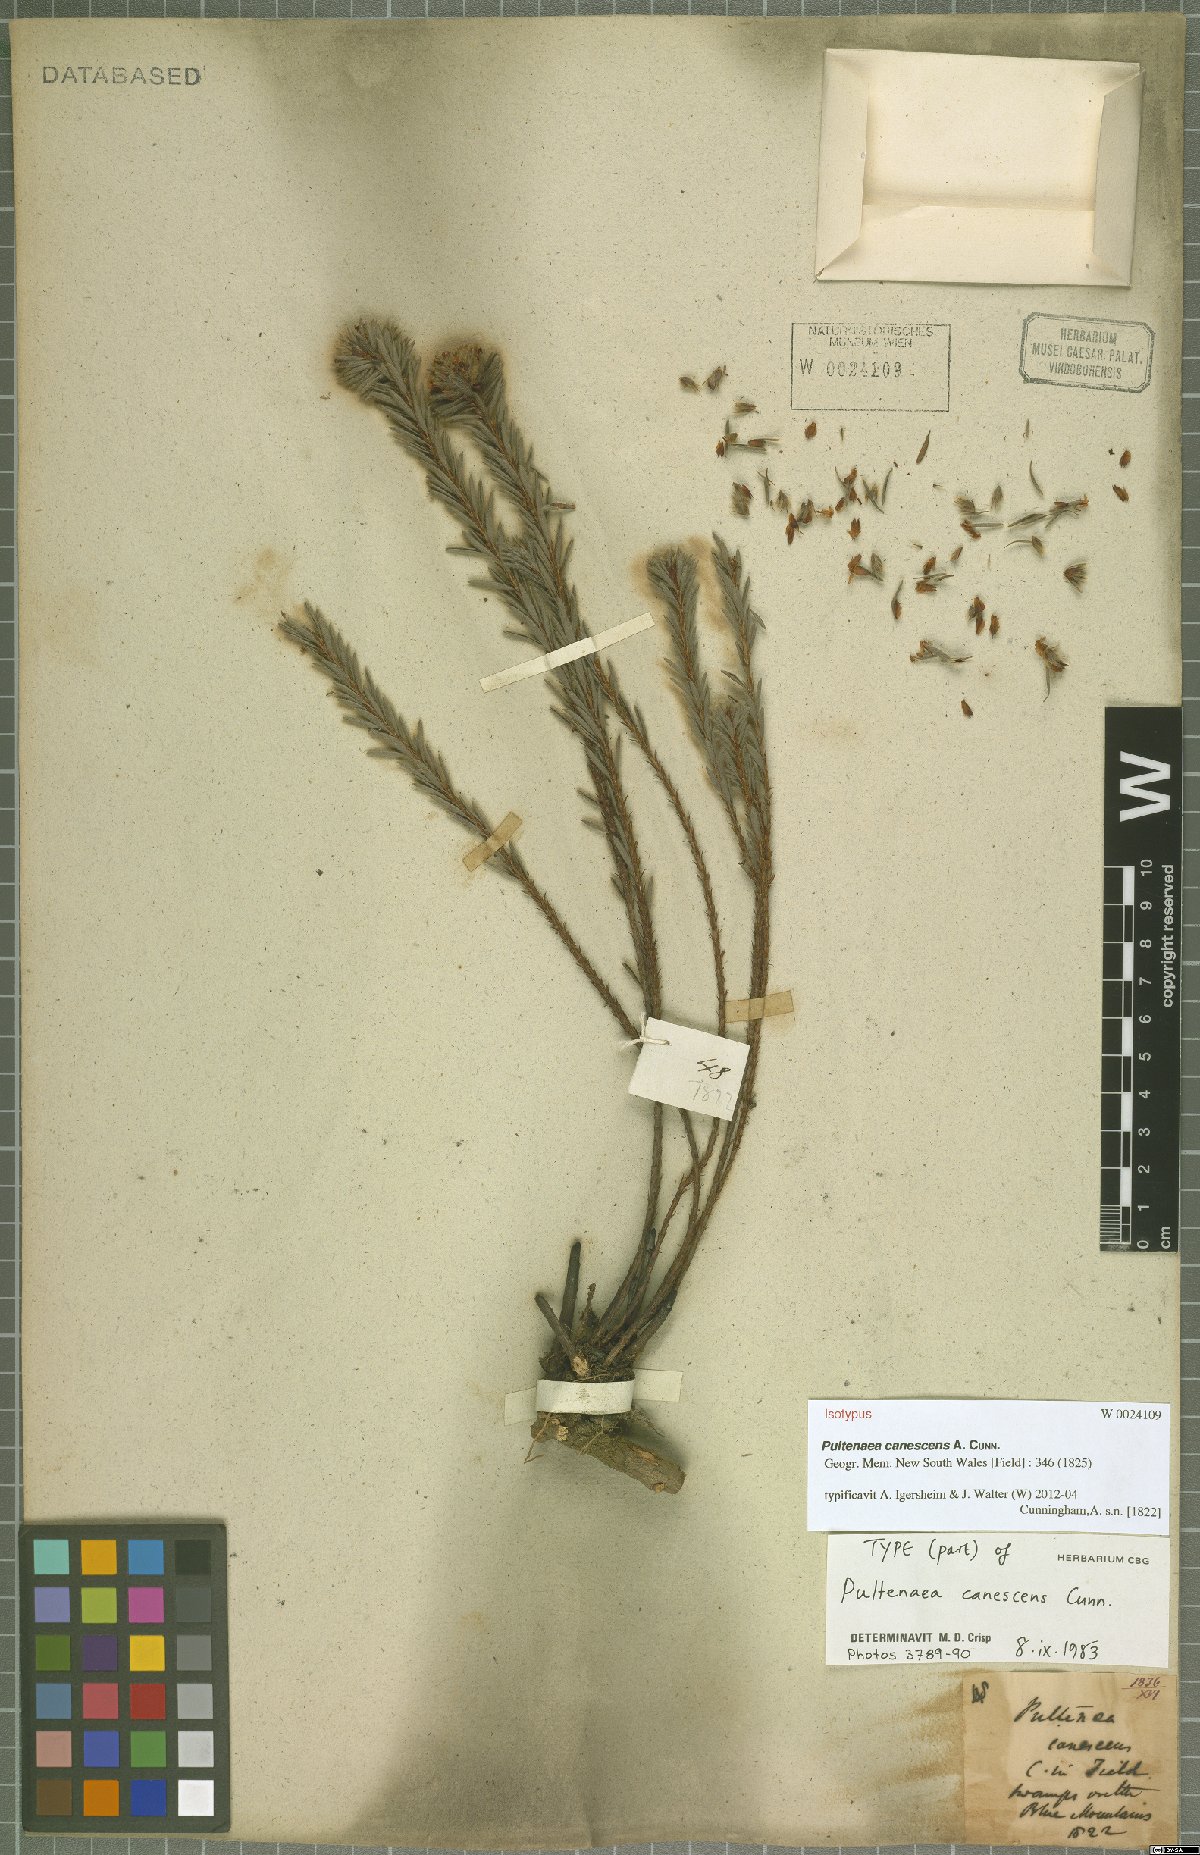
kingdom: Plantae
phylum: Tracheophyta
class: Magnoliopsida
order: Fabales
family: Fabaceae
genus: Pultenaea
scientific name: Pultenaea canescens
